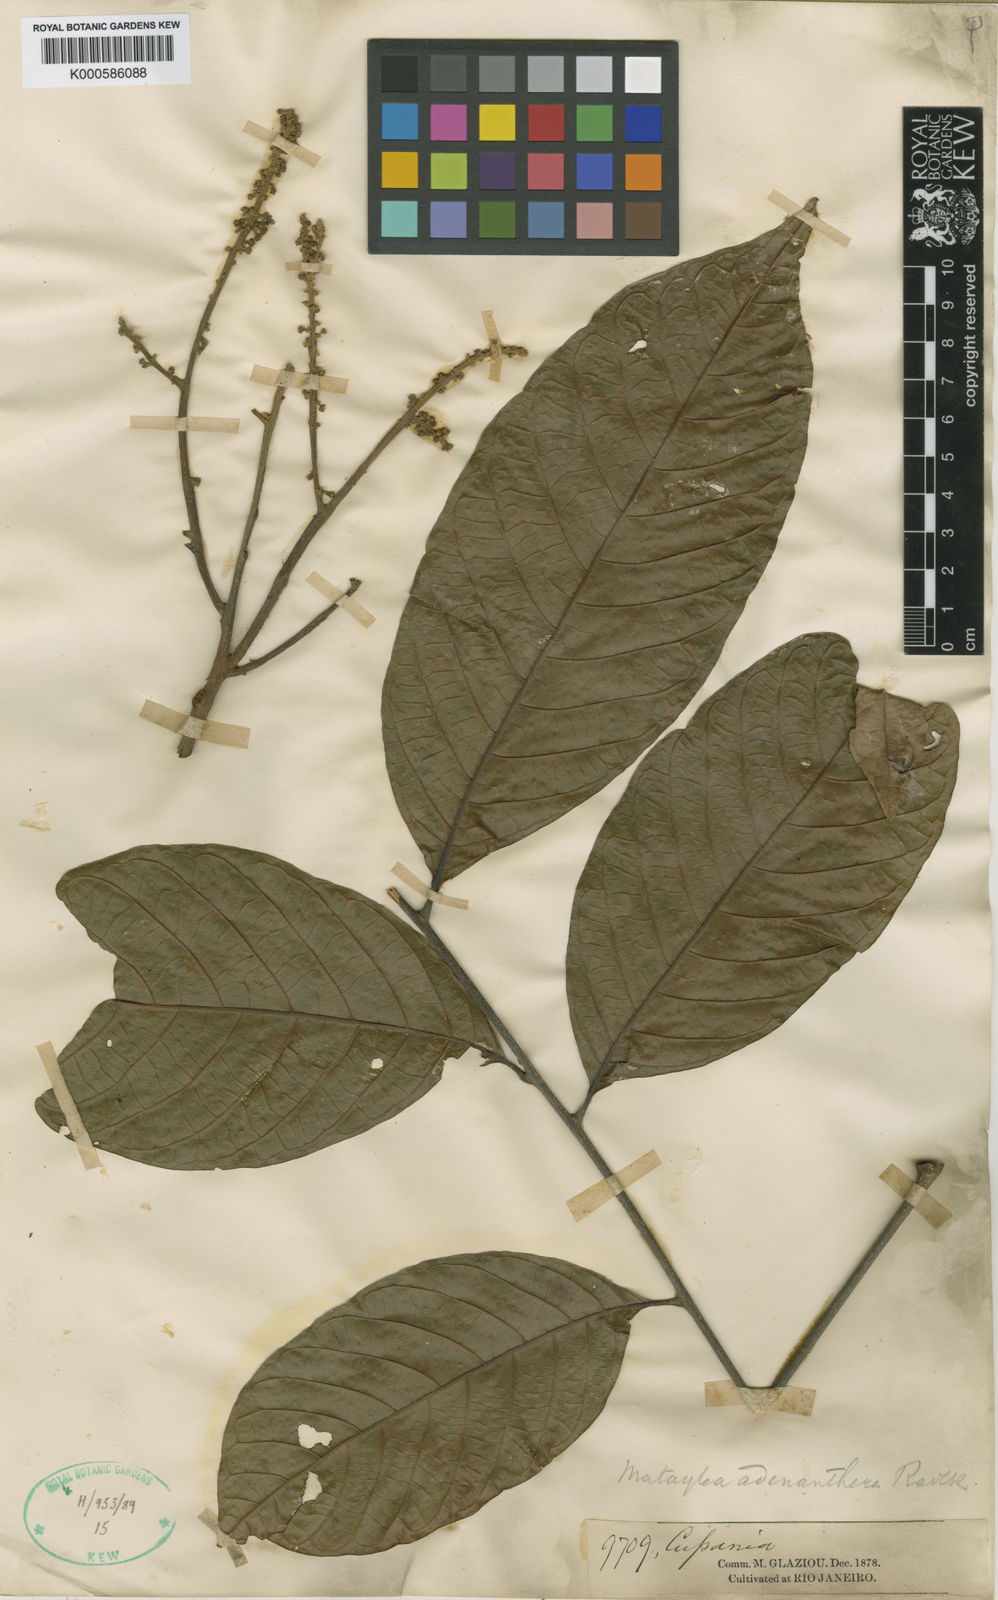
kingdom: Plantae
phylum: Tracheophyta
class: Magnoliopsida
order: Sapindales
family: Sapindaceae
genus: Matayba
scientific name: Matayba adenanthera
